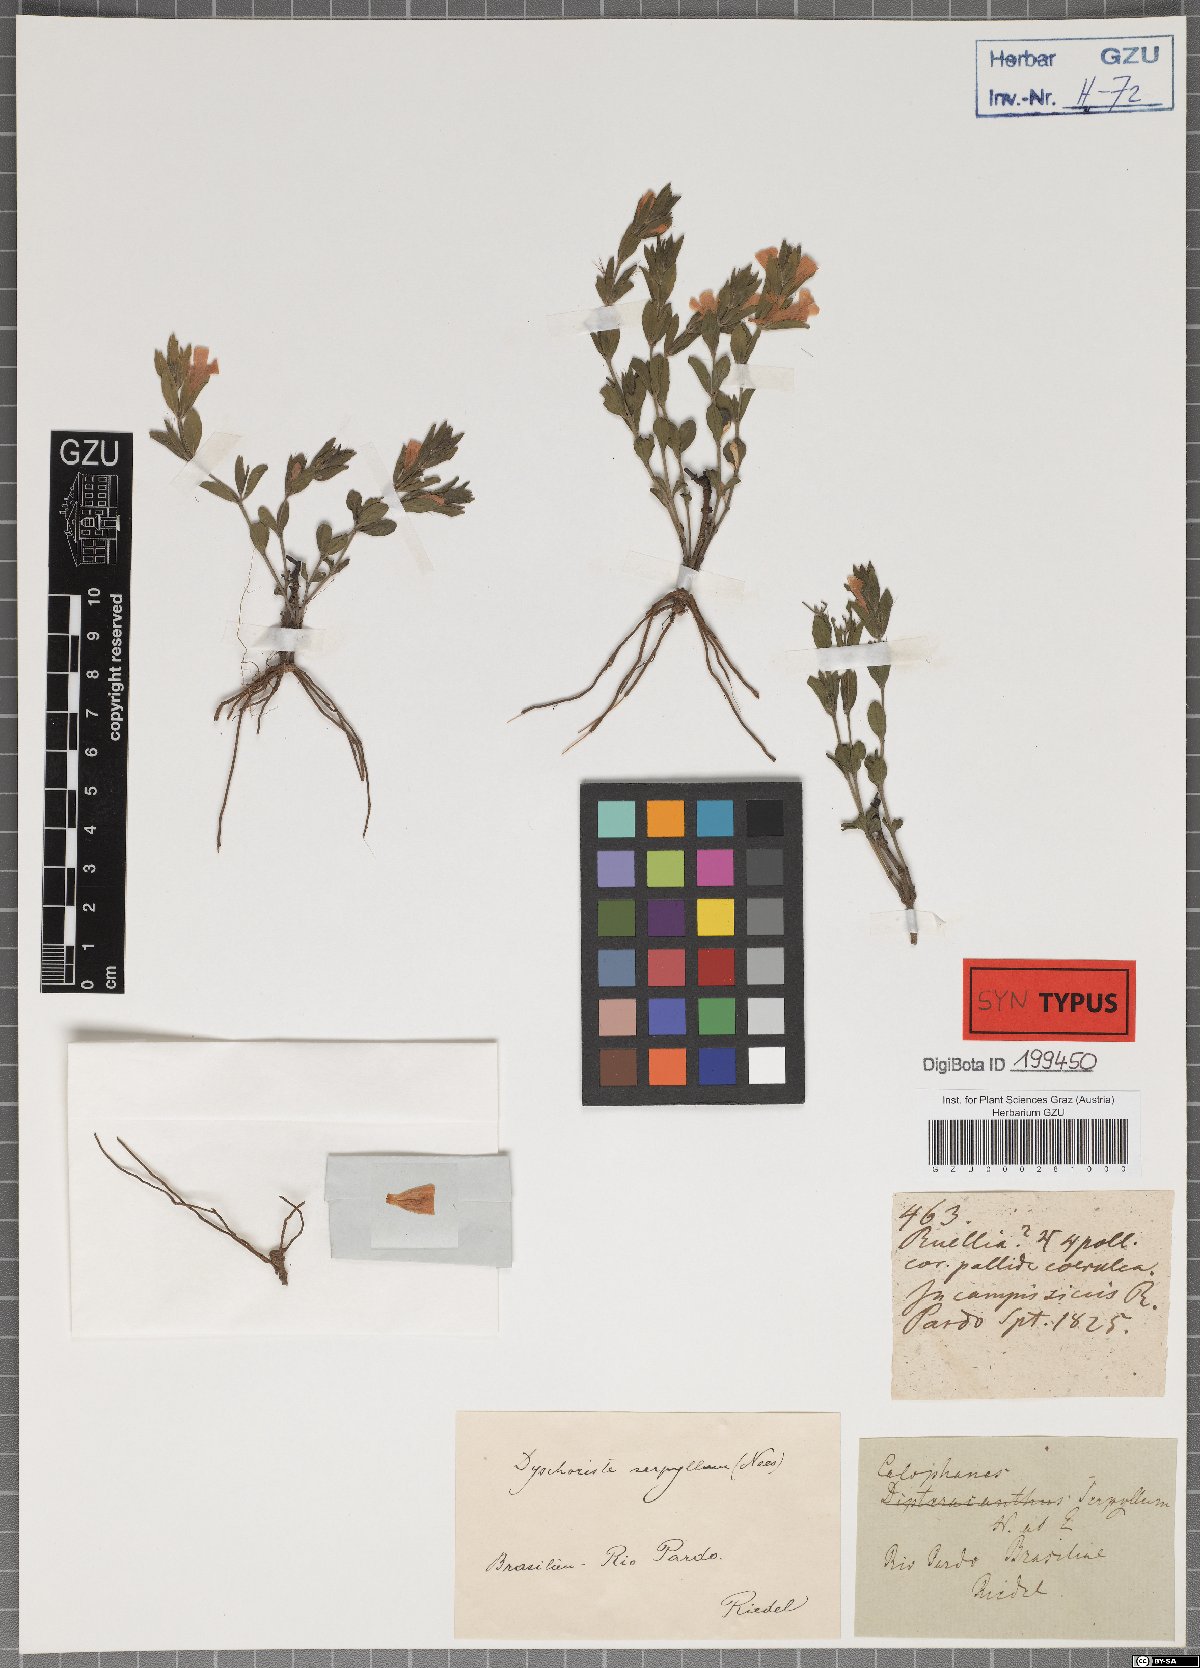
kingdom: Plantae
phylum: Tracheophyta
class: Magnoliopsida
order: Lamiales
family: Acanthaceae
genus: Dyschoriste
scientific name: Dyschoriste serpyllum
